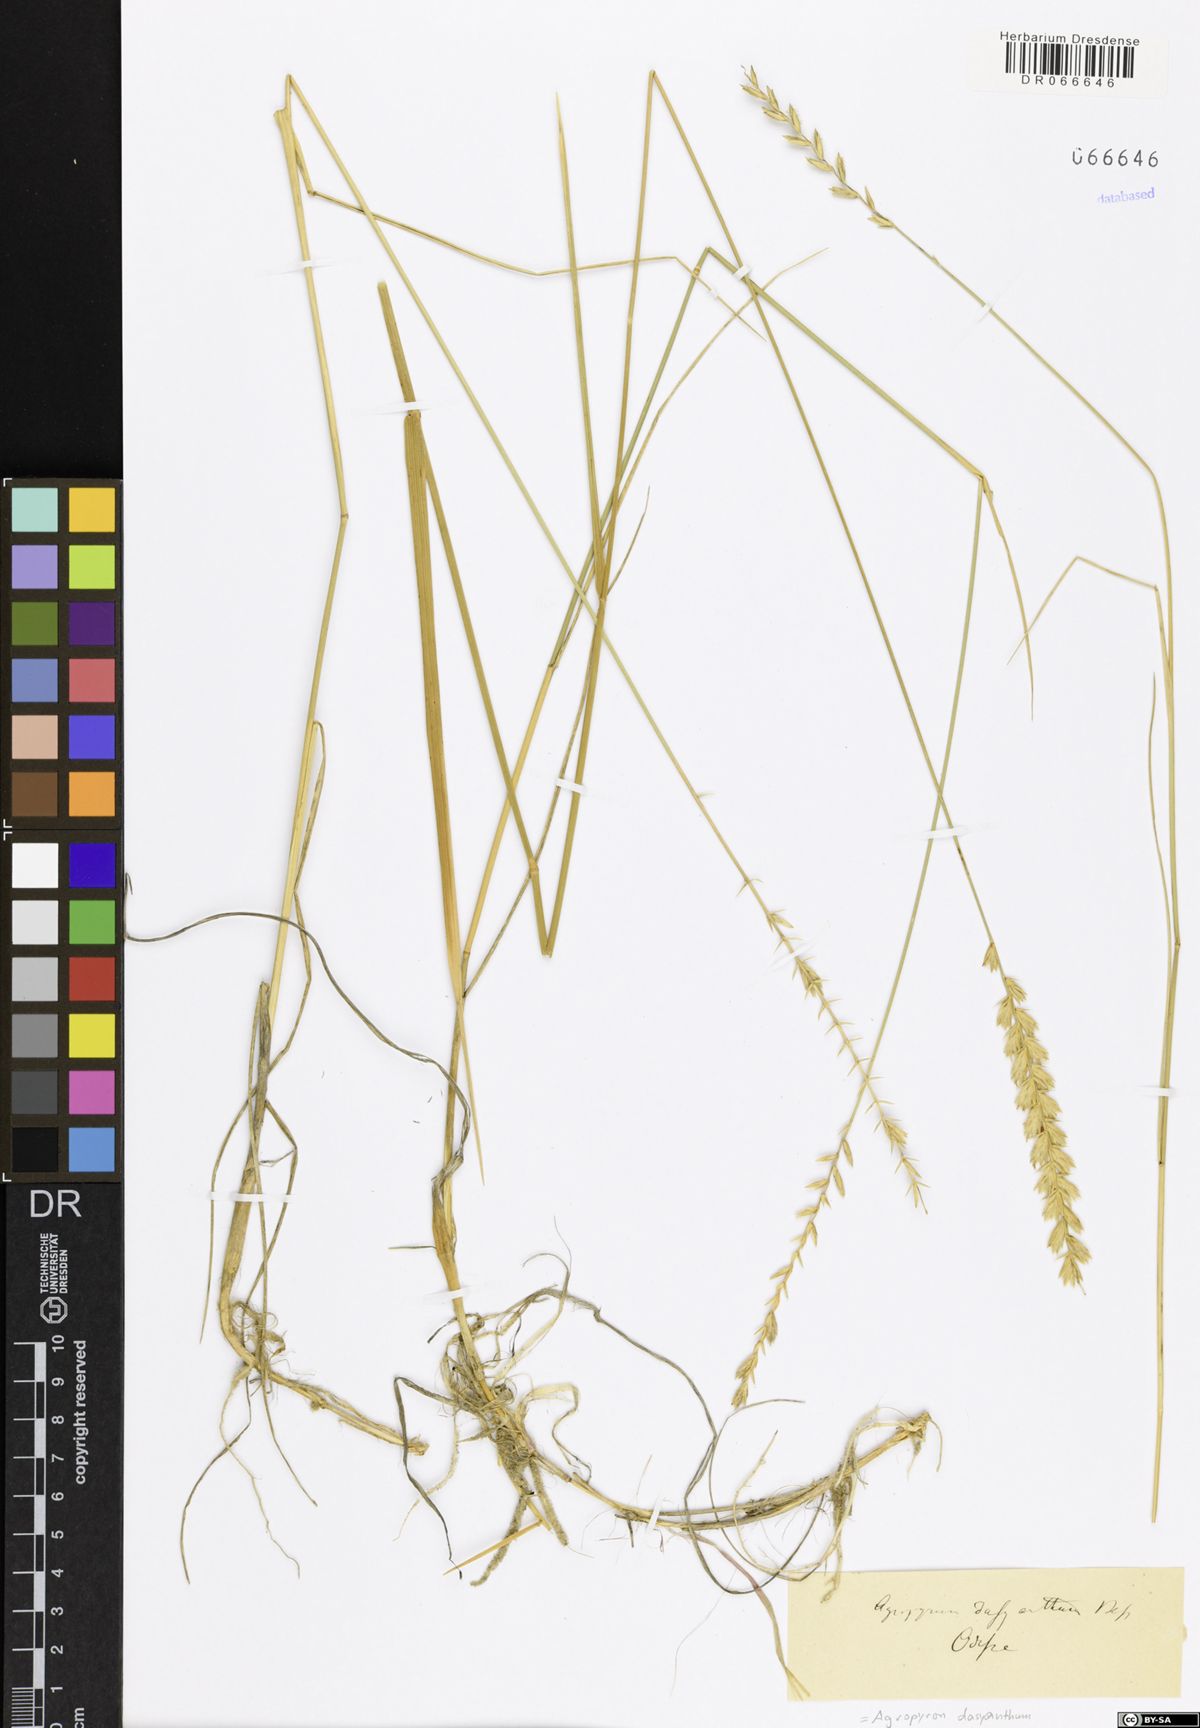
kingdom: Plantae
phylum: Tracheophyta
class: Liliopsida
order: Poales
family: Poaceae
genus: Agropyron
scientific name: Agropyron dasyanthum
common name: Edge flowered crested wheatgrass
